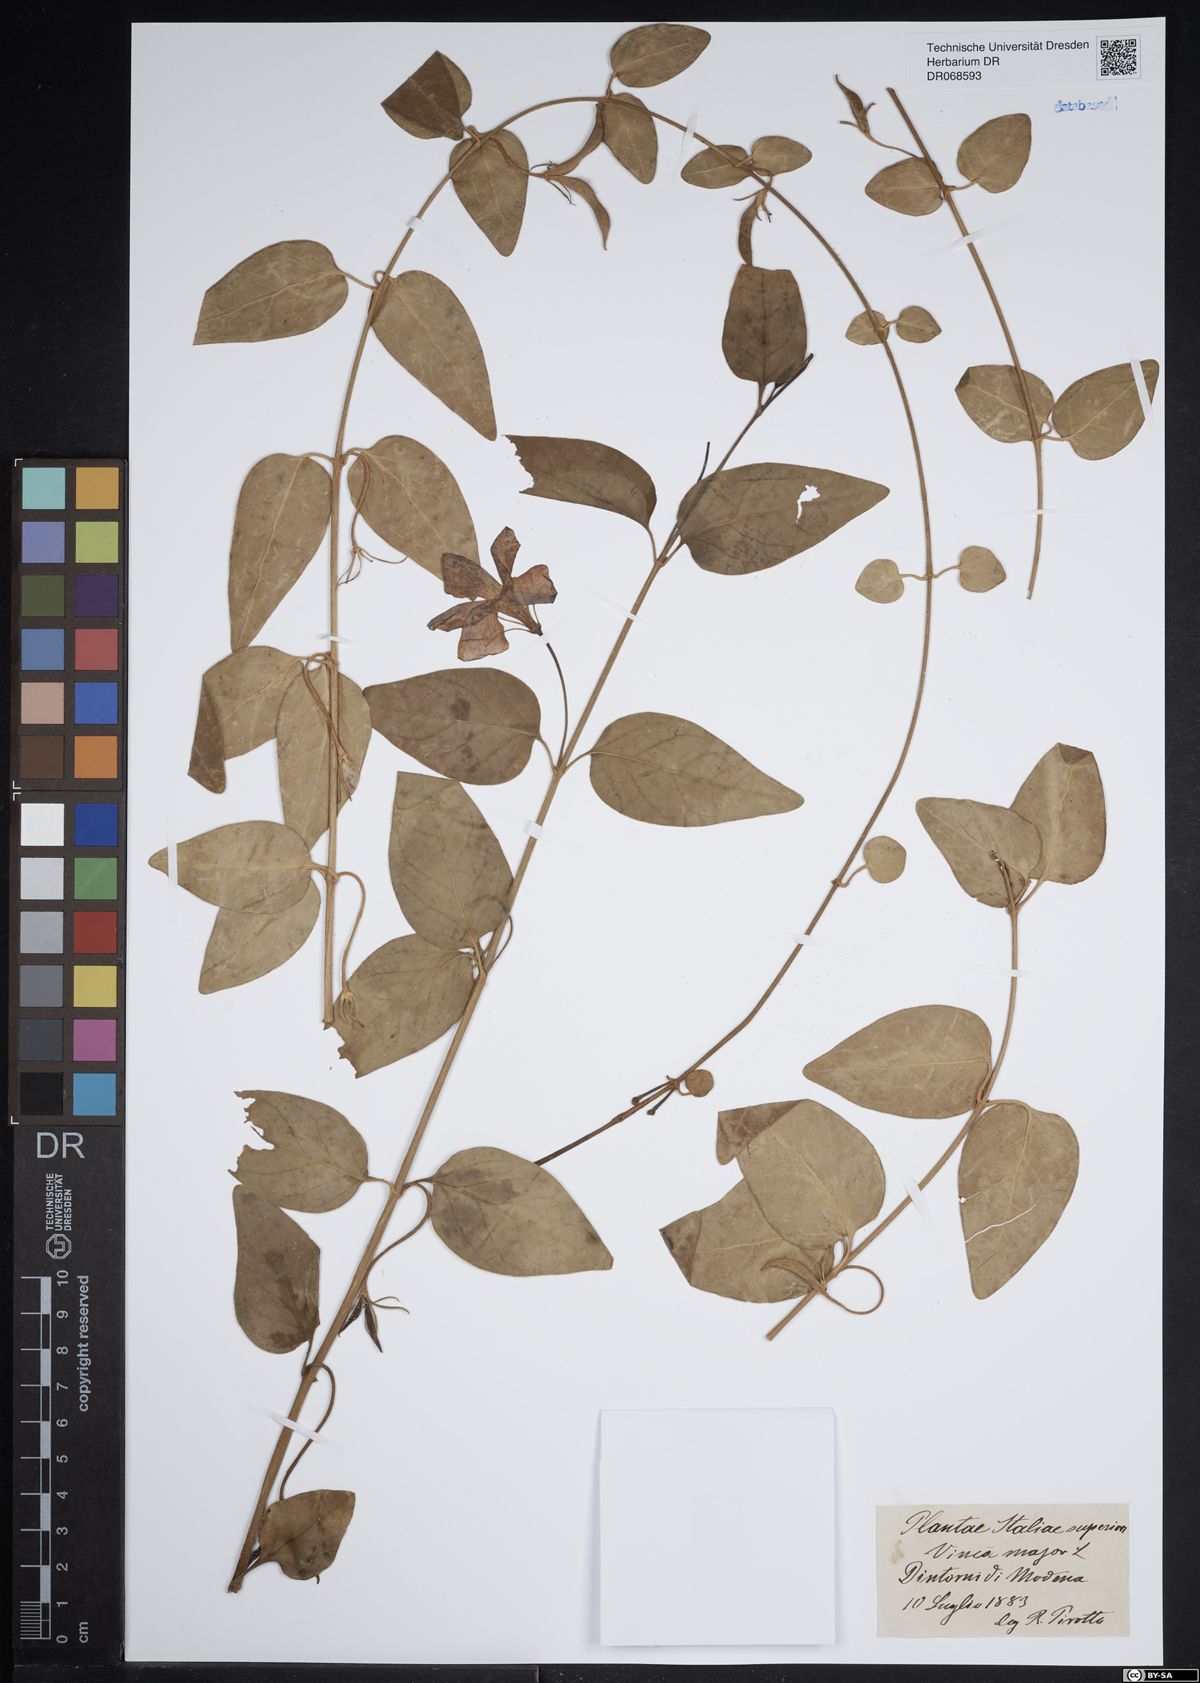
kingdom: Plantae
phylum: Tracheophyta
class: Magnoliopsida
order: Gentianales
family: Apocynaceae
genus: Vinca
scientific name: Vinca major
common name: Greater periwinkle
